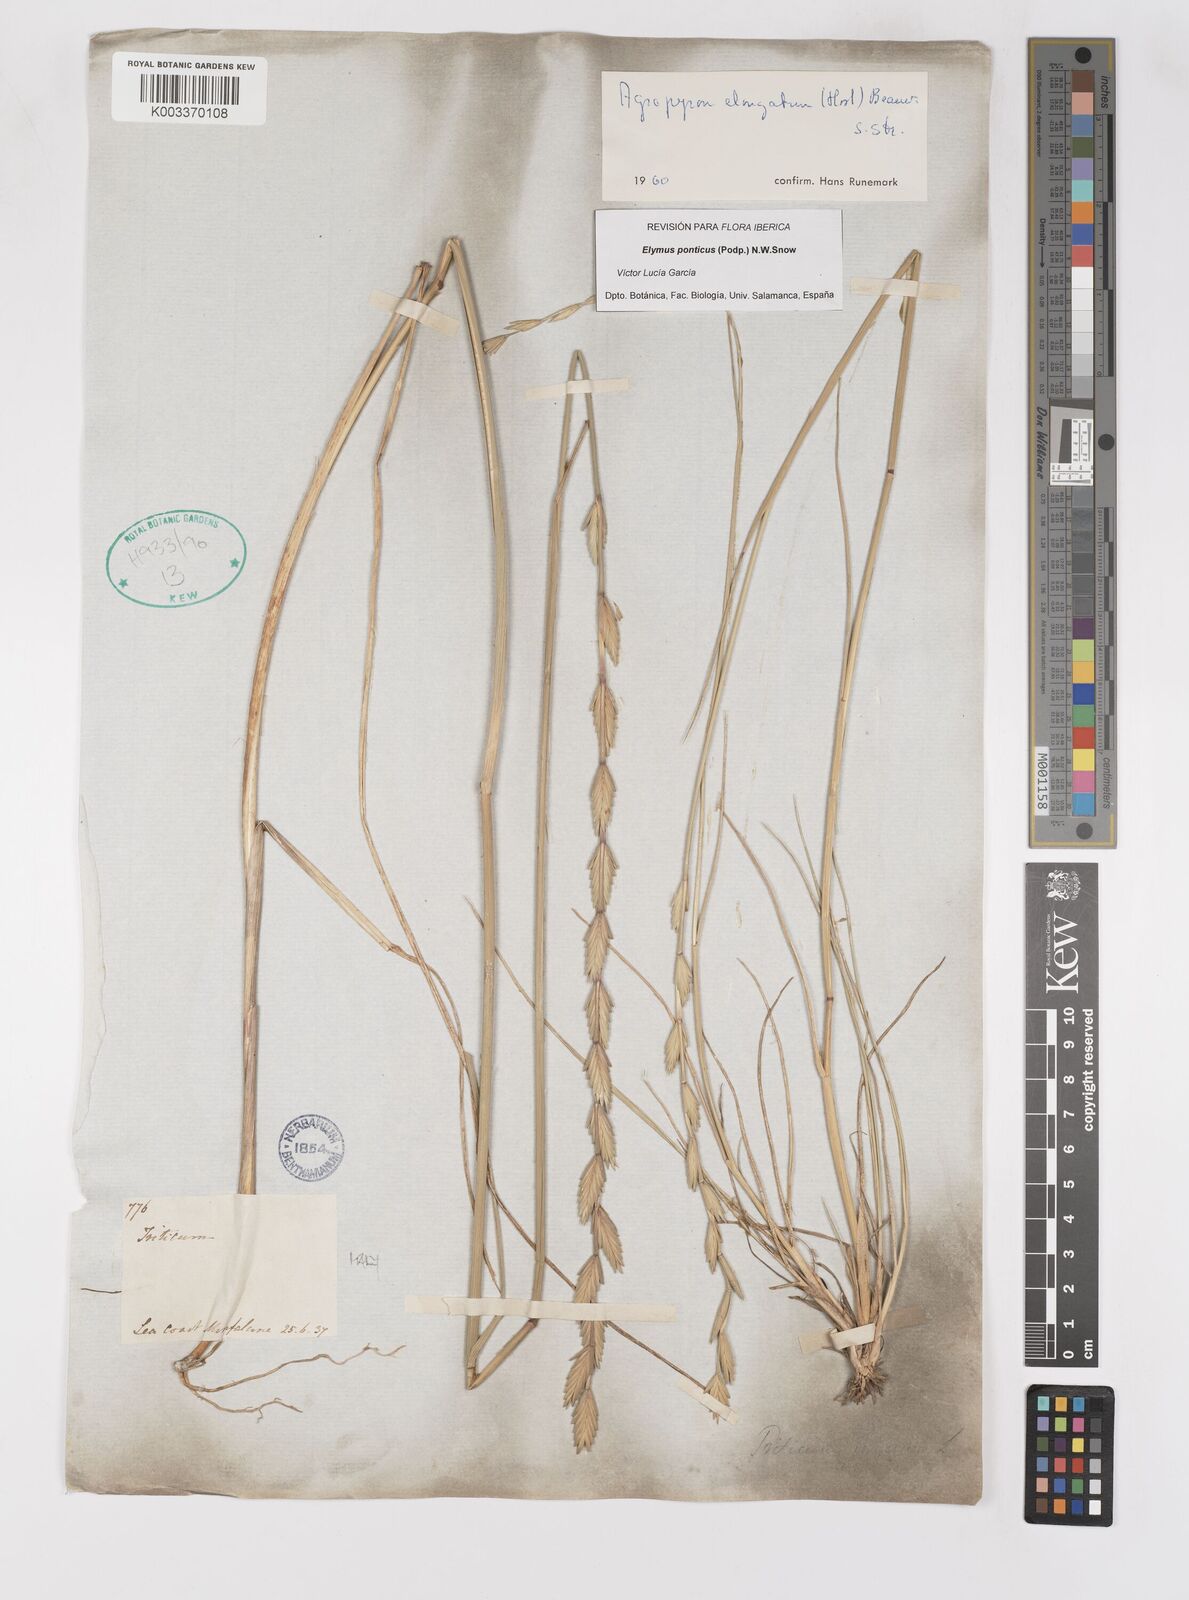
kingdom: Plantae
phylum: Tracheophyta
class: Liliopsida
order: Poales
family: Poaceae
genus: Thinopyrum
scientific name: Thinopyrum elongatum
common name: Tall wheatgrass
